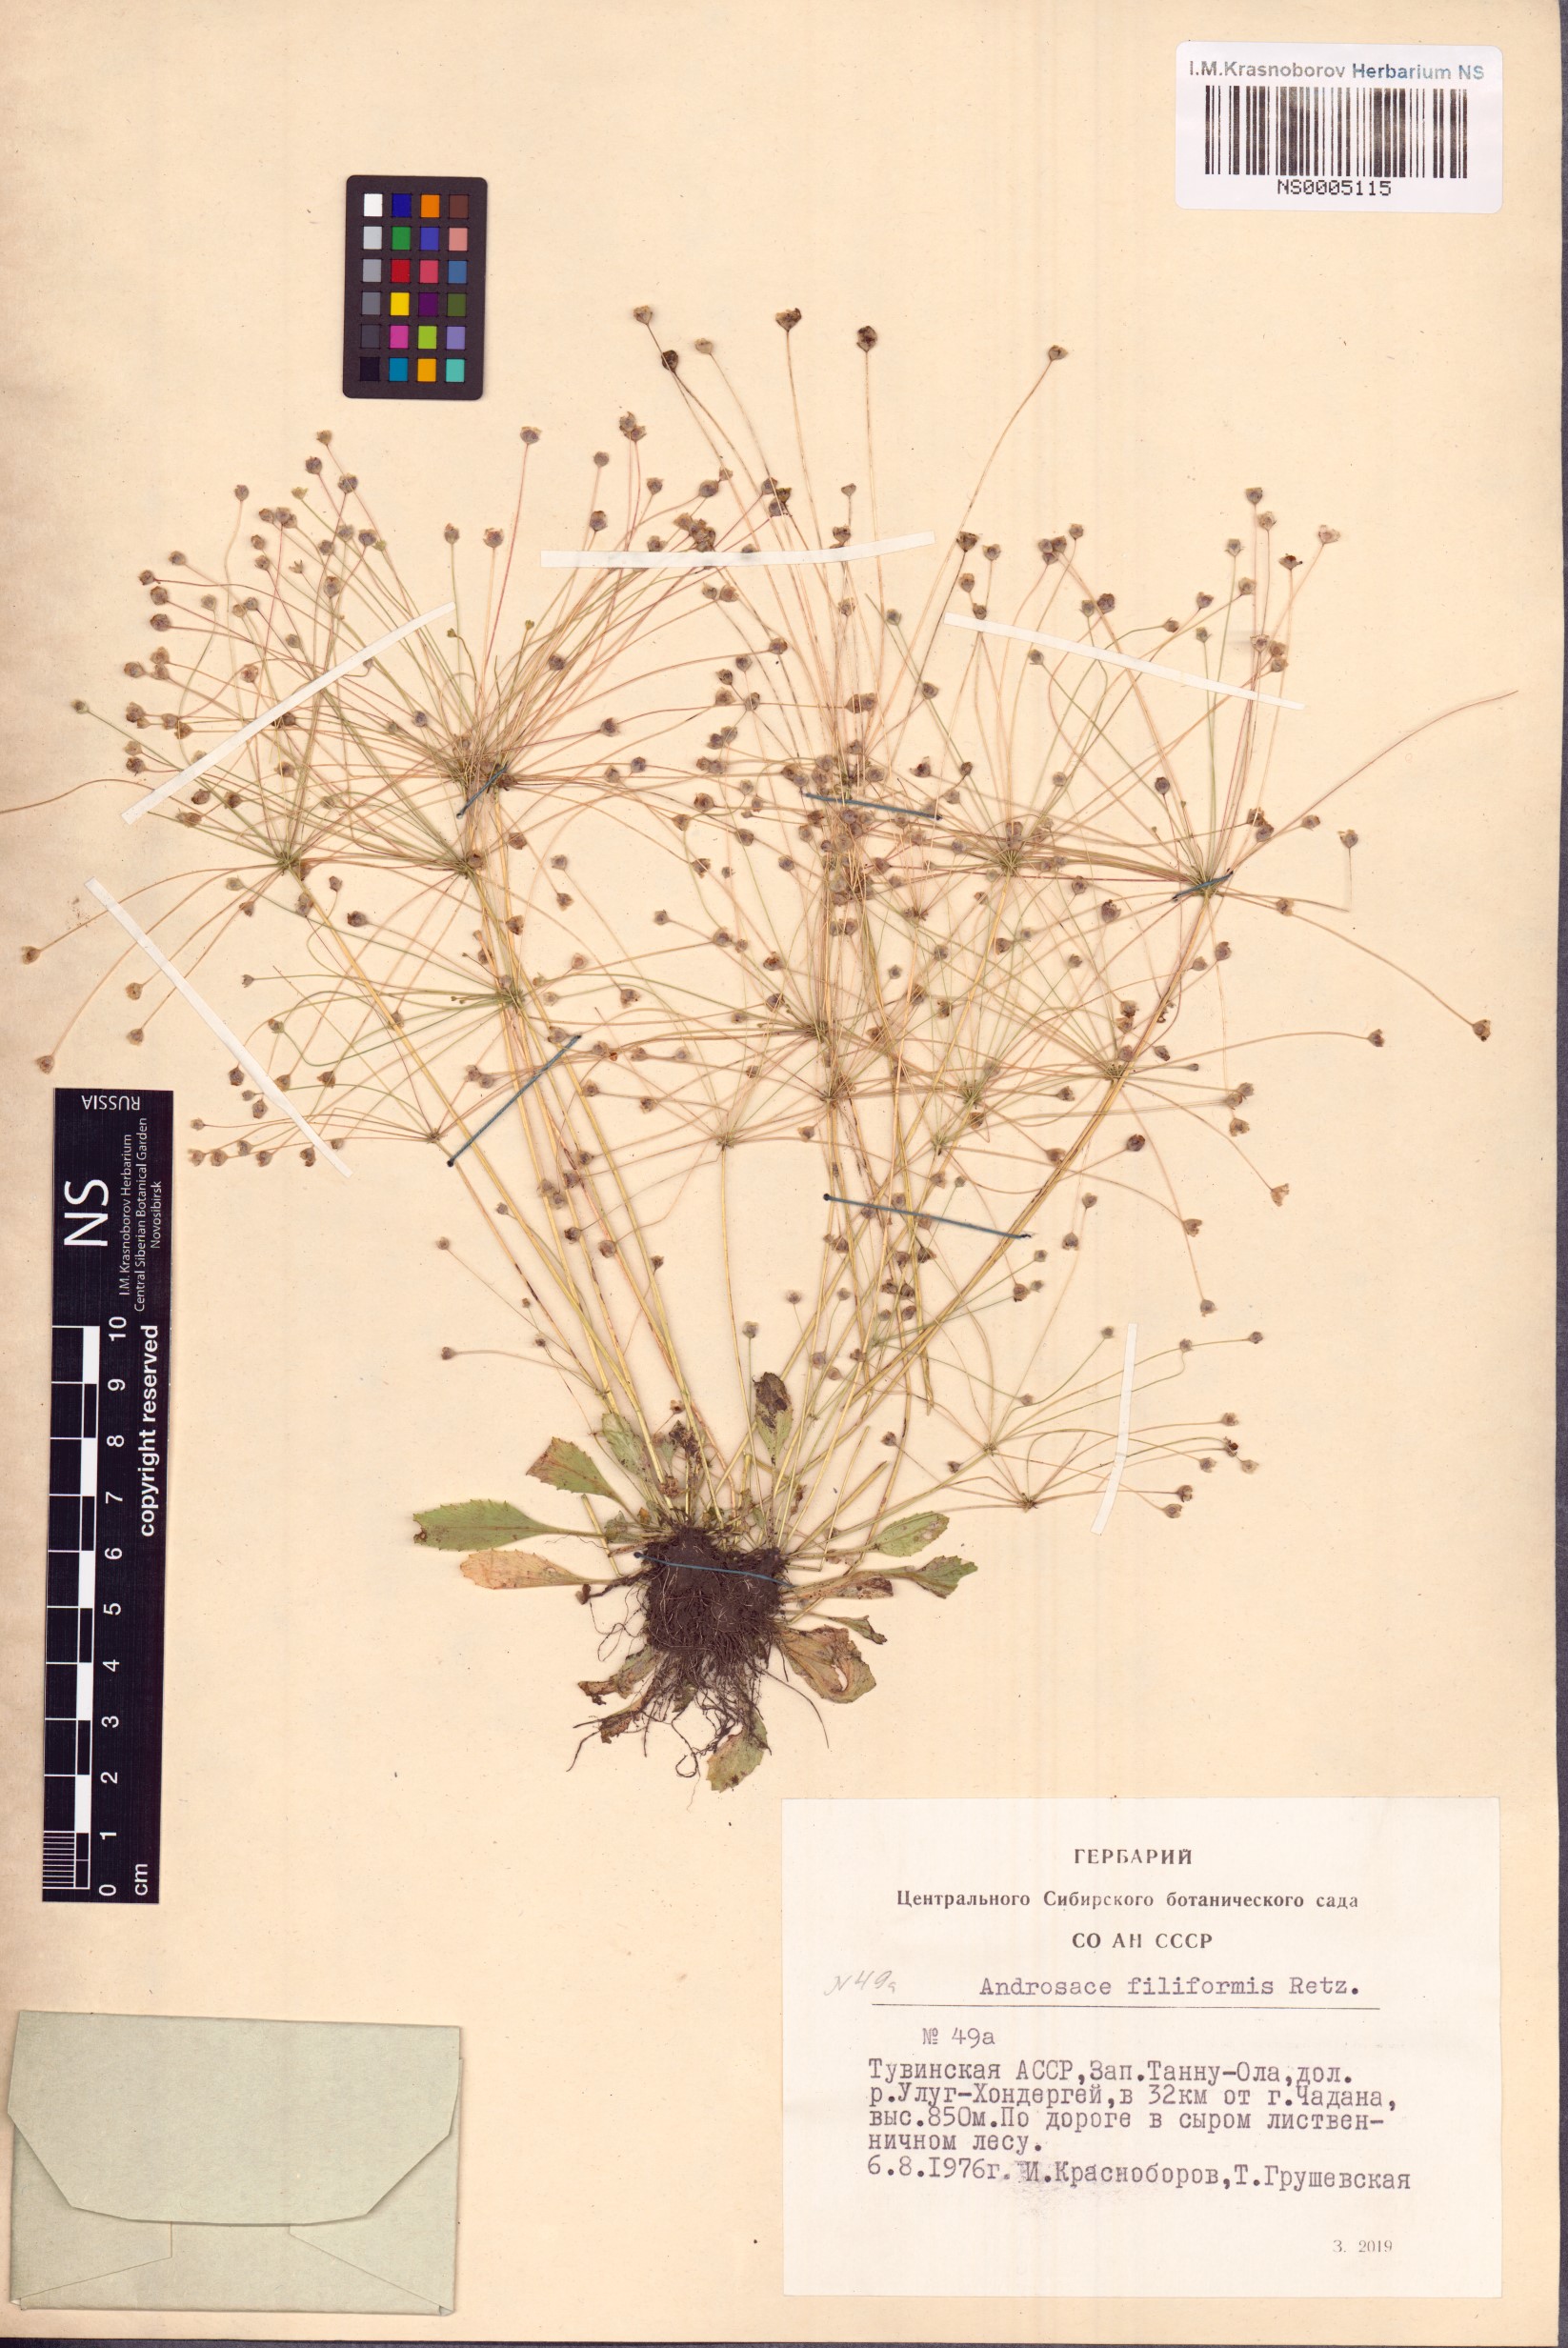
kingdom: Plantae
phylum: Tracheophyta
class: Magnoliopsida
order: Ericales
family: Primulaceae
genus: Androsace
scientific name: Androsace filiformis
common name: Filiform rock jasmine
